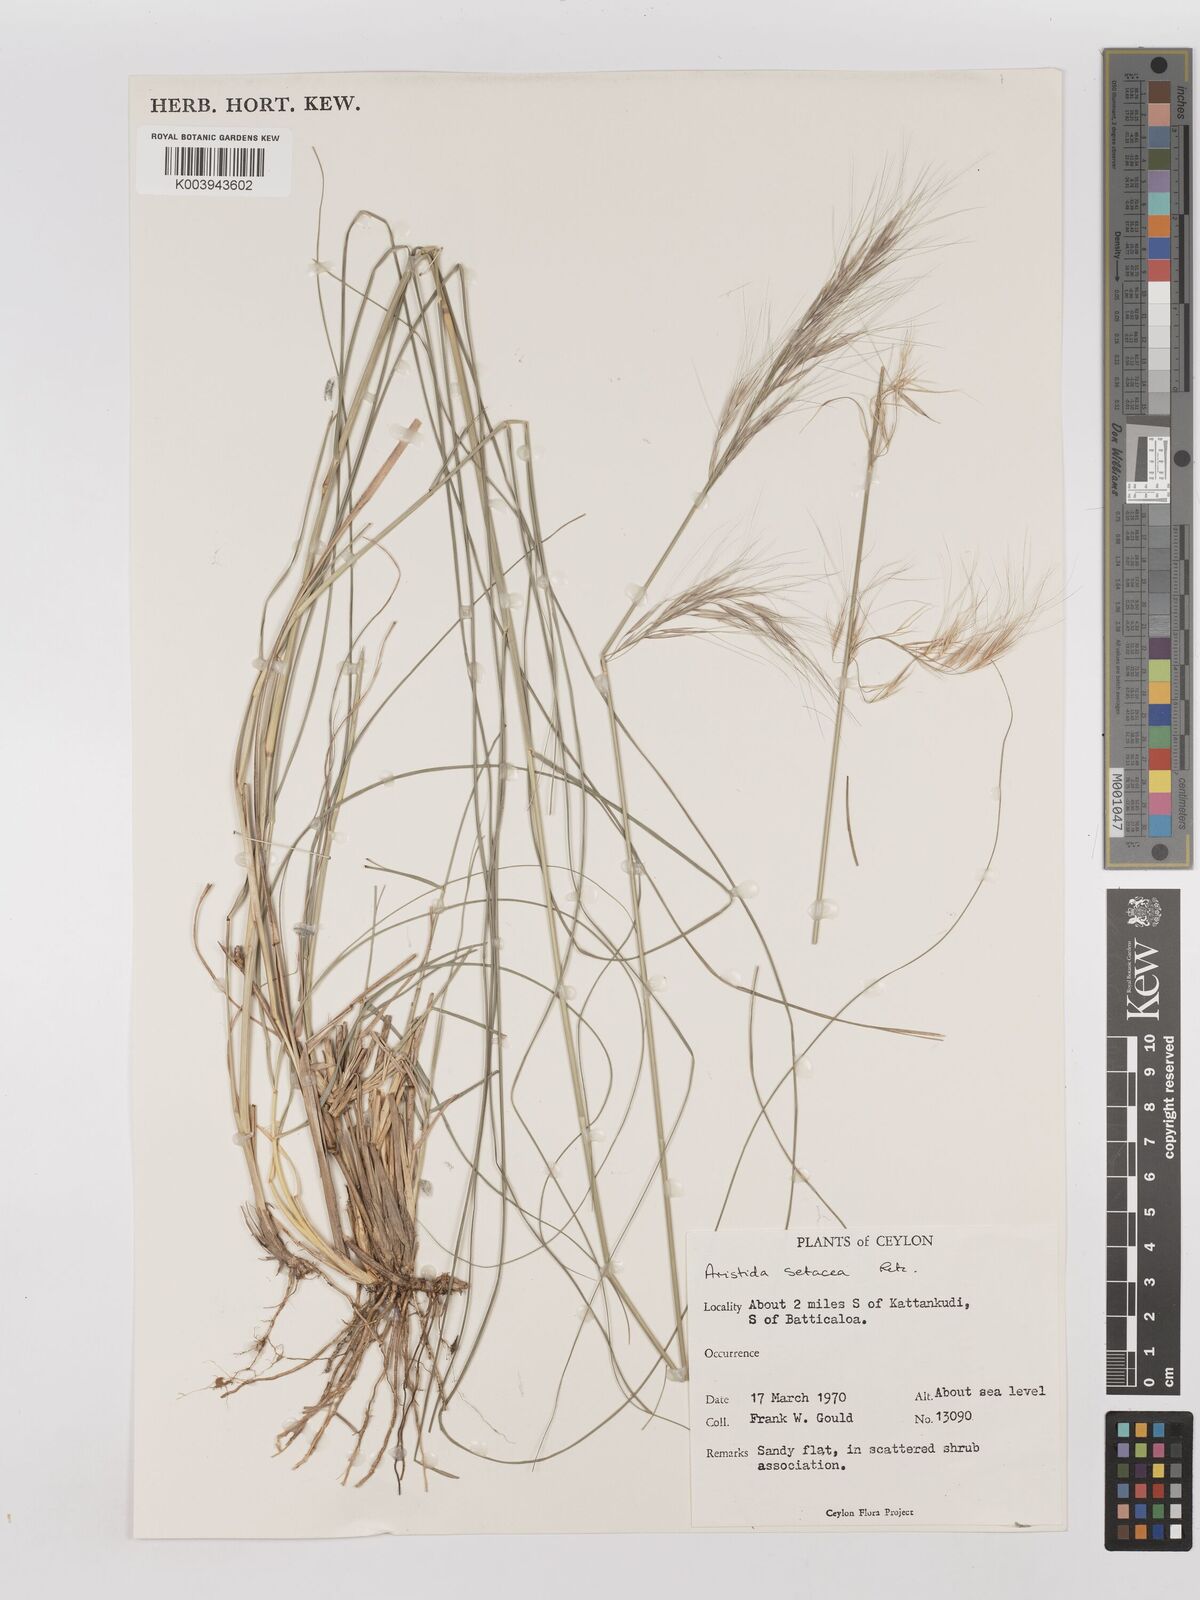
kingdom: Plantae
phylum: Tracheophyta
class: Liliopsida
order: Poales
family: Poaceae
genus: Aristida
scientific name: Aristida setacea
